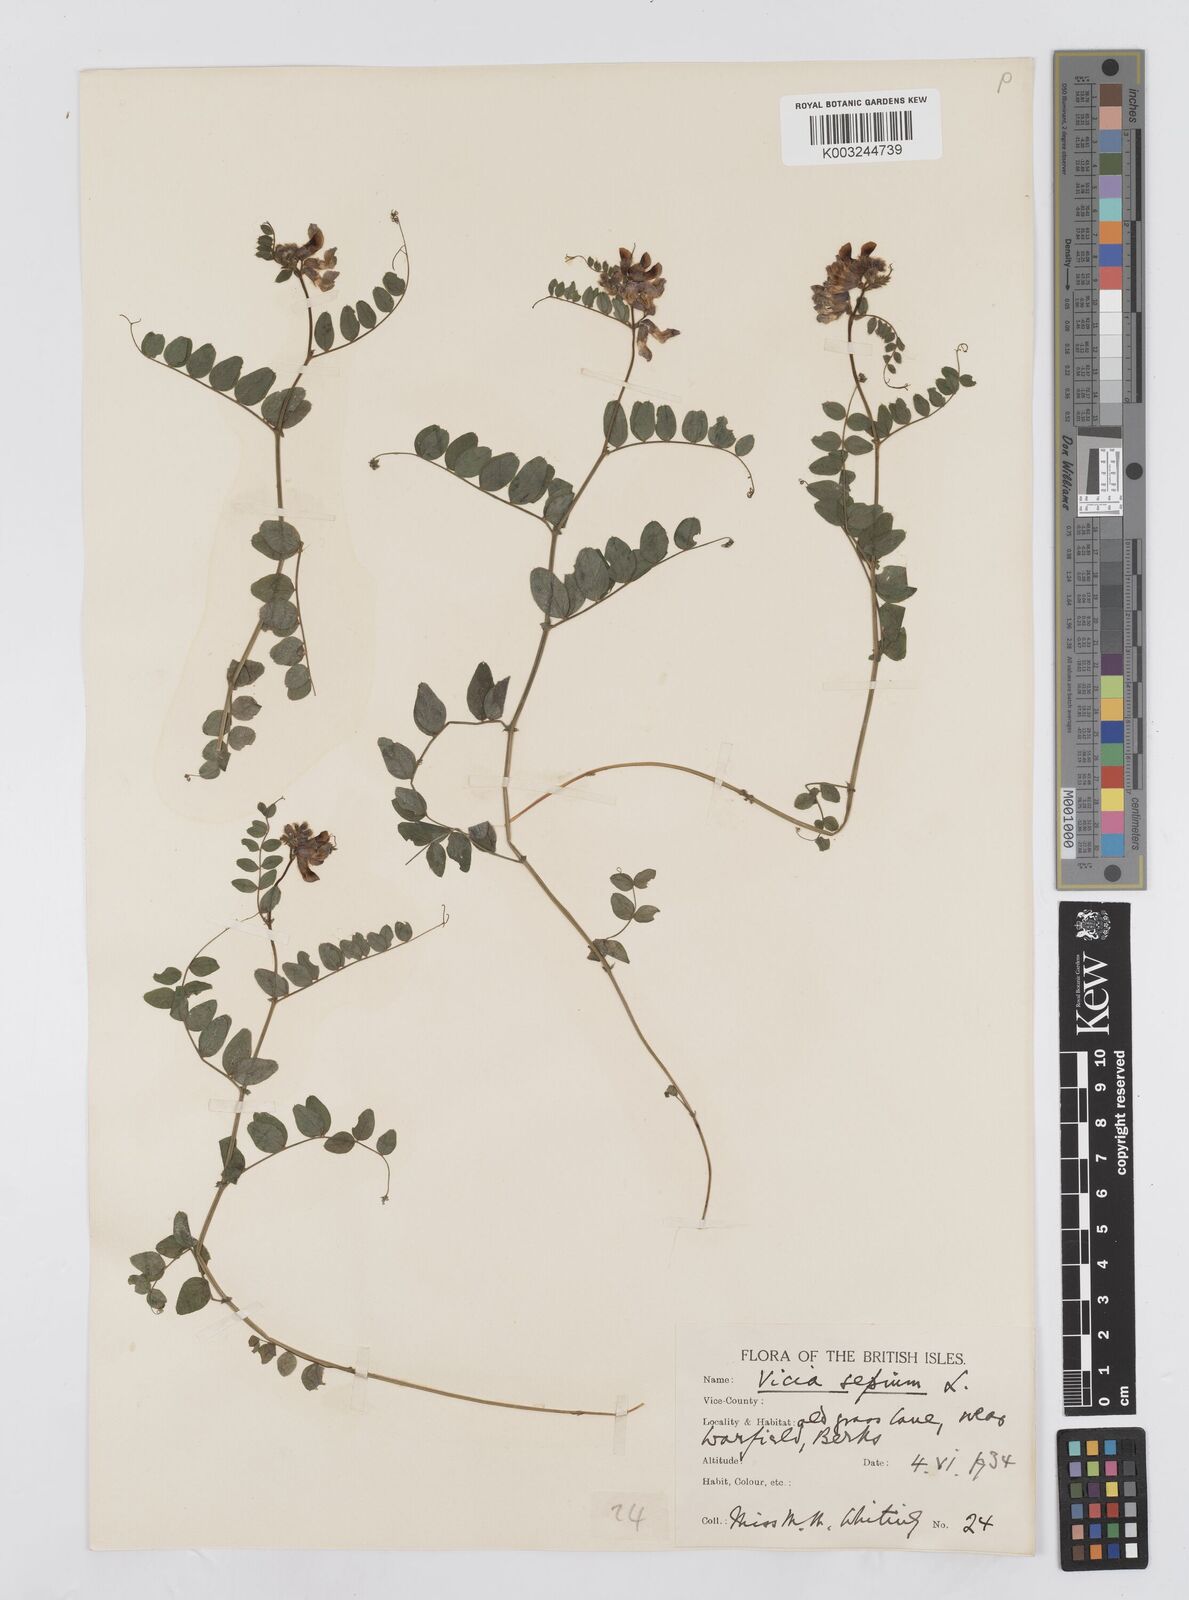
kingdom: Plantae
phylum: Tracheophyta
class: Magnoliopsida
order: Fabales
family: Fabaceae
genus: Vicia
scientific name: Vicia sepium
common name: Bush vetch
